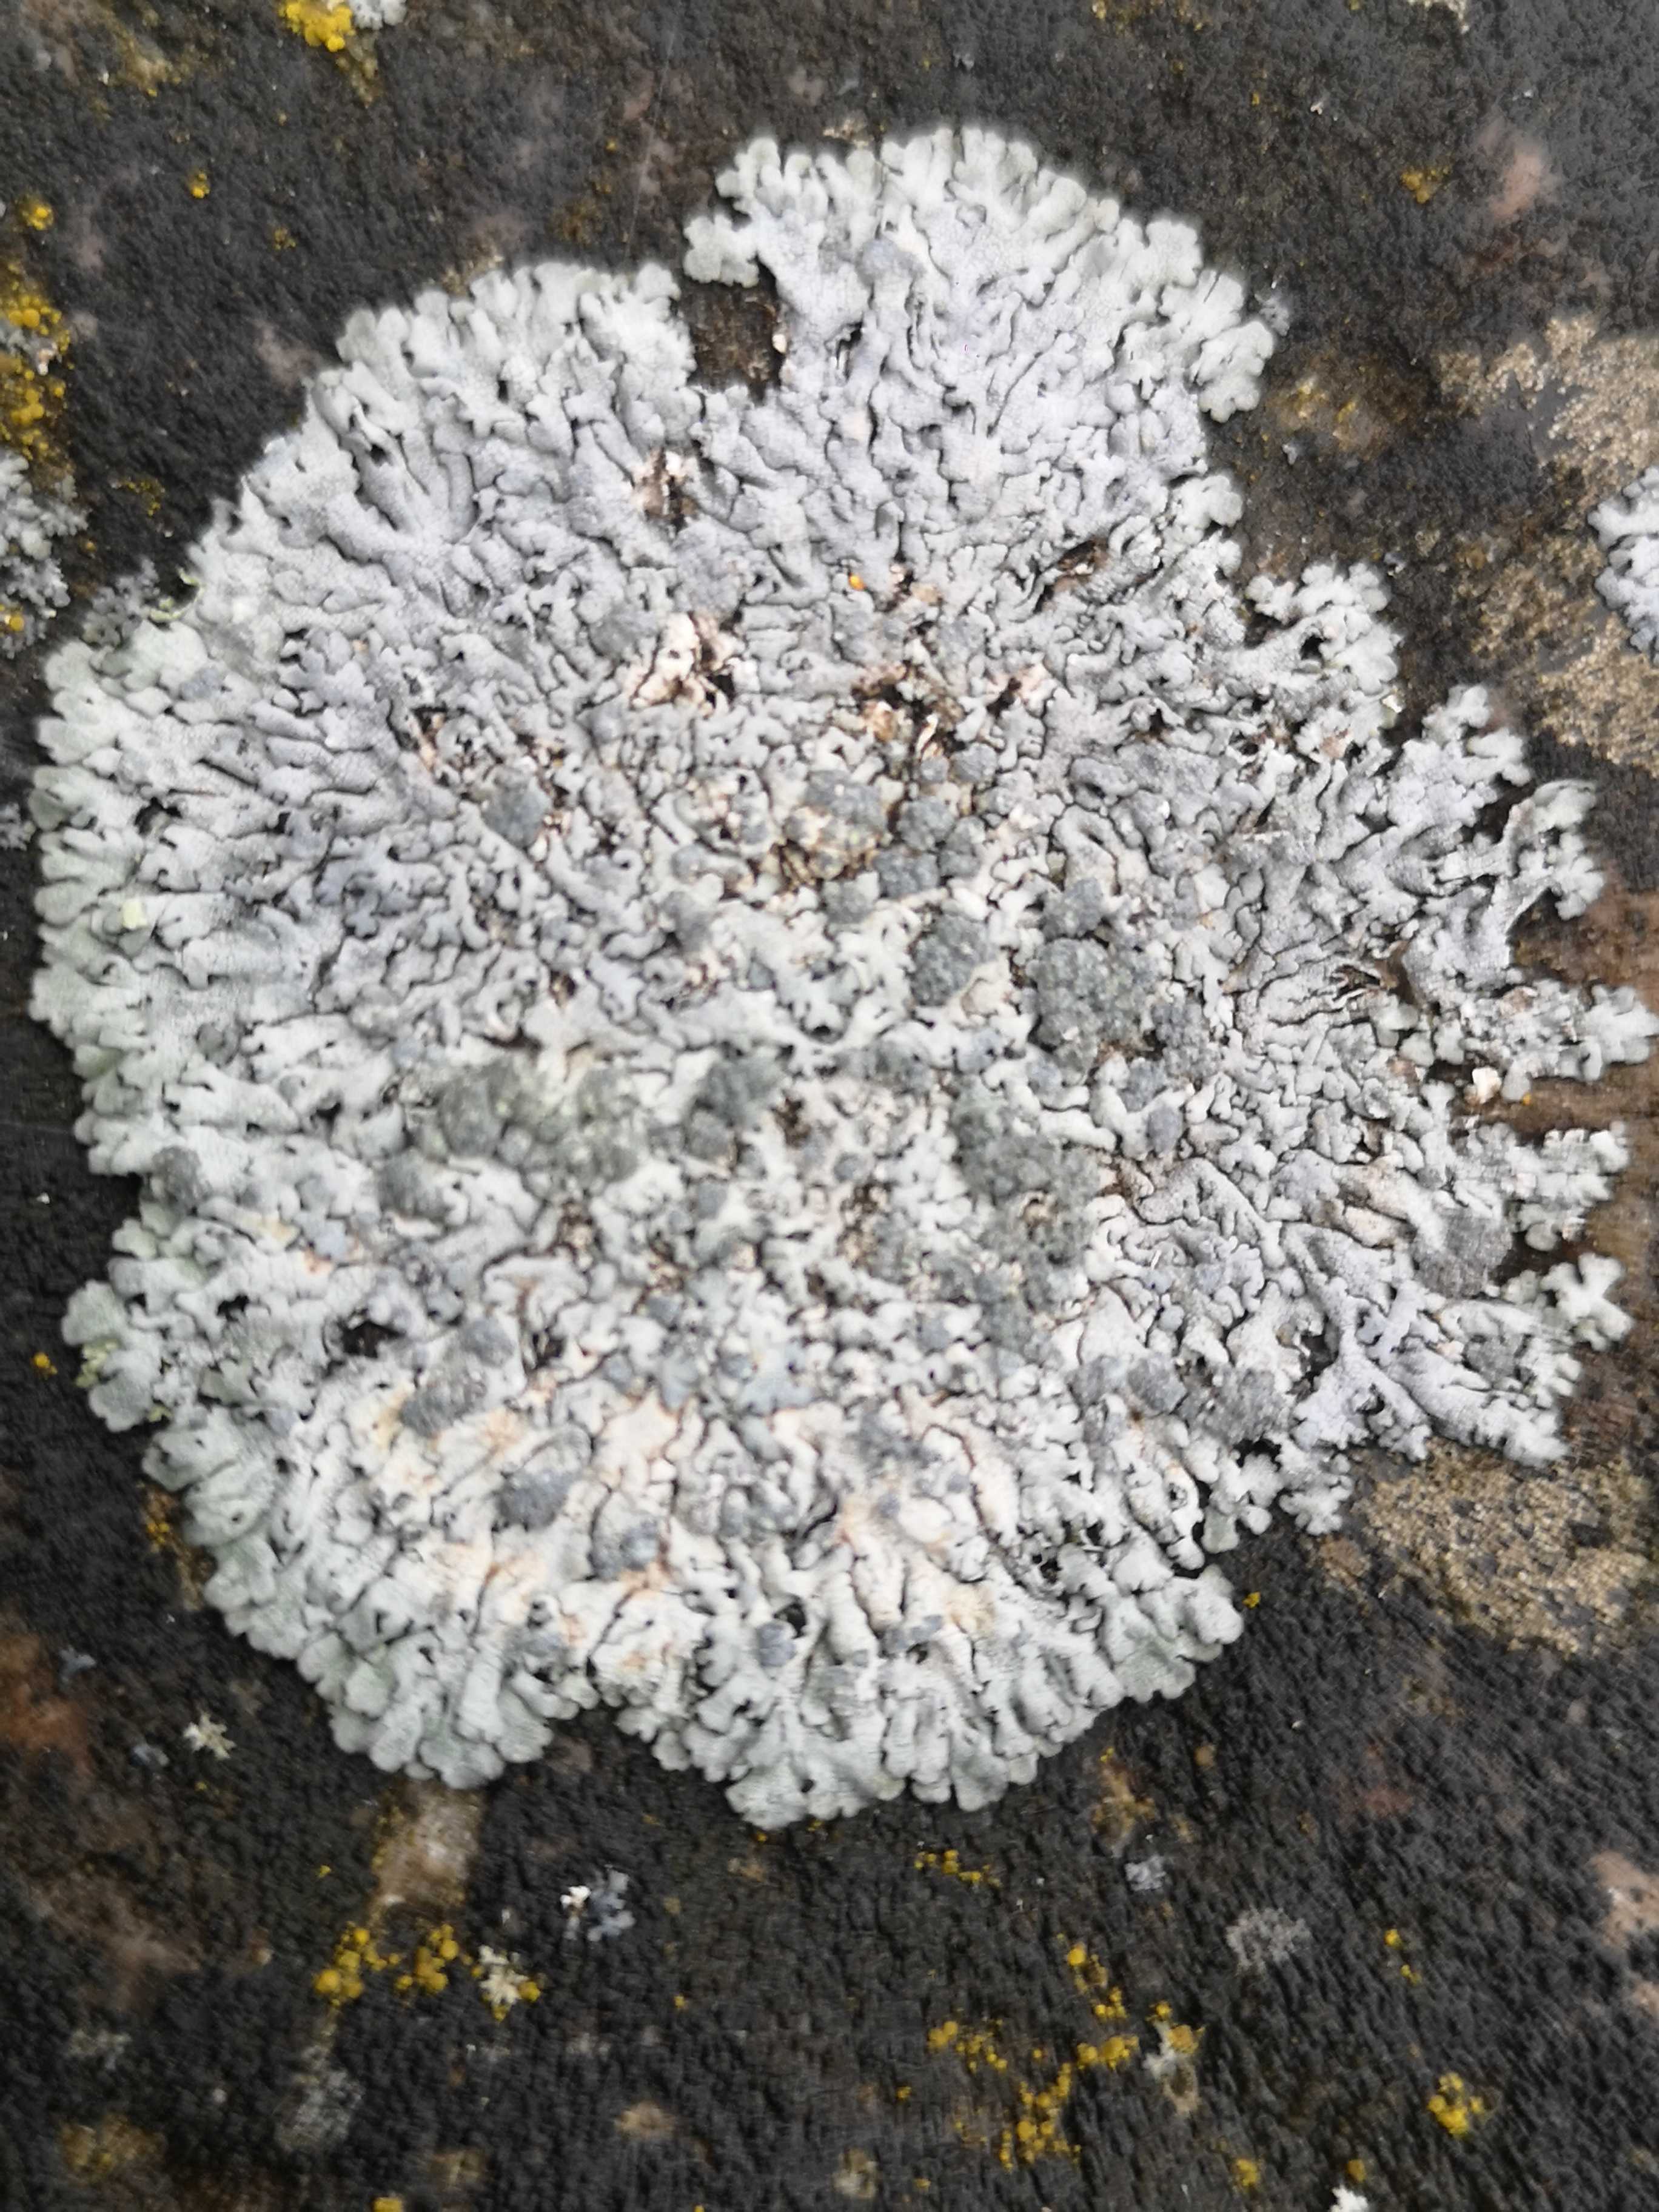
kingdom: Fungi
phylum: Ascomycota
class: Lecanoromycetes
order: Caliciales
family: Physciaceae
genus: Physcia
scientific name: Physcia caesia
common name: blågrå rosetlav
